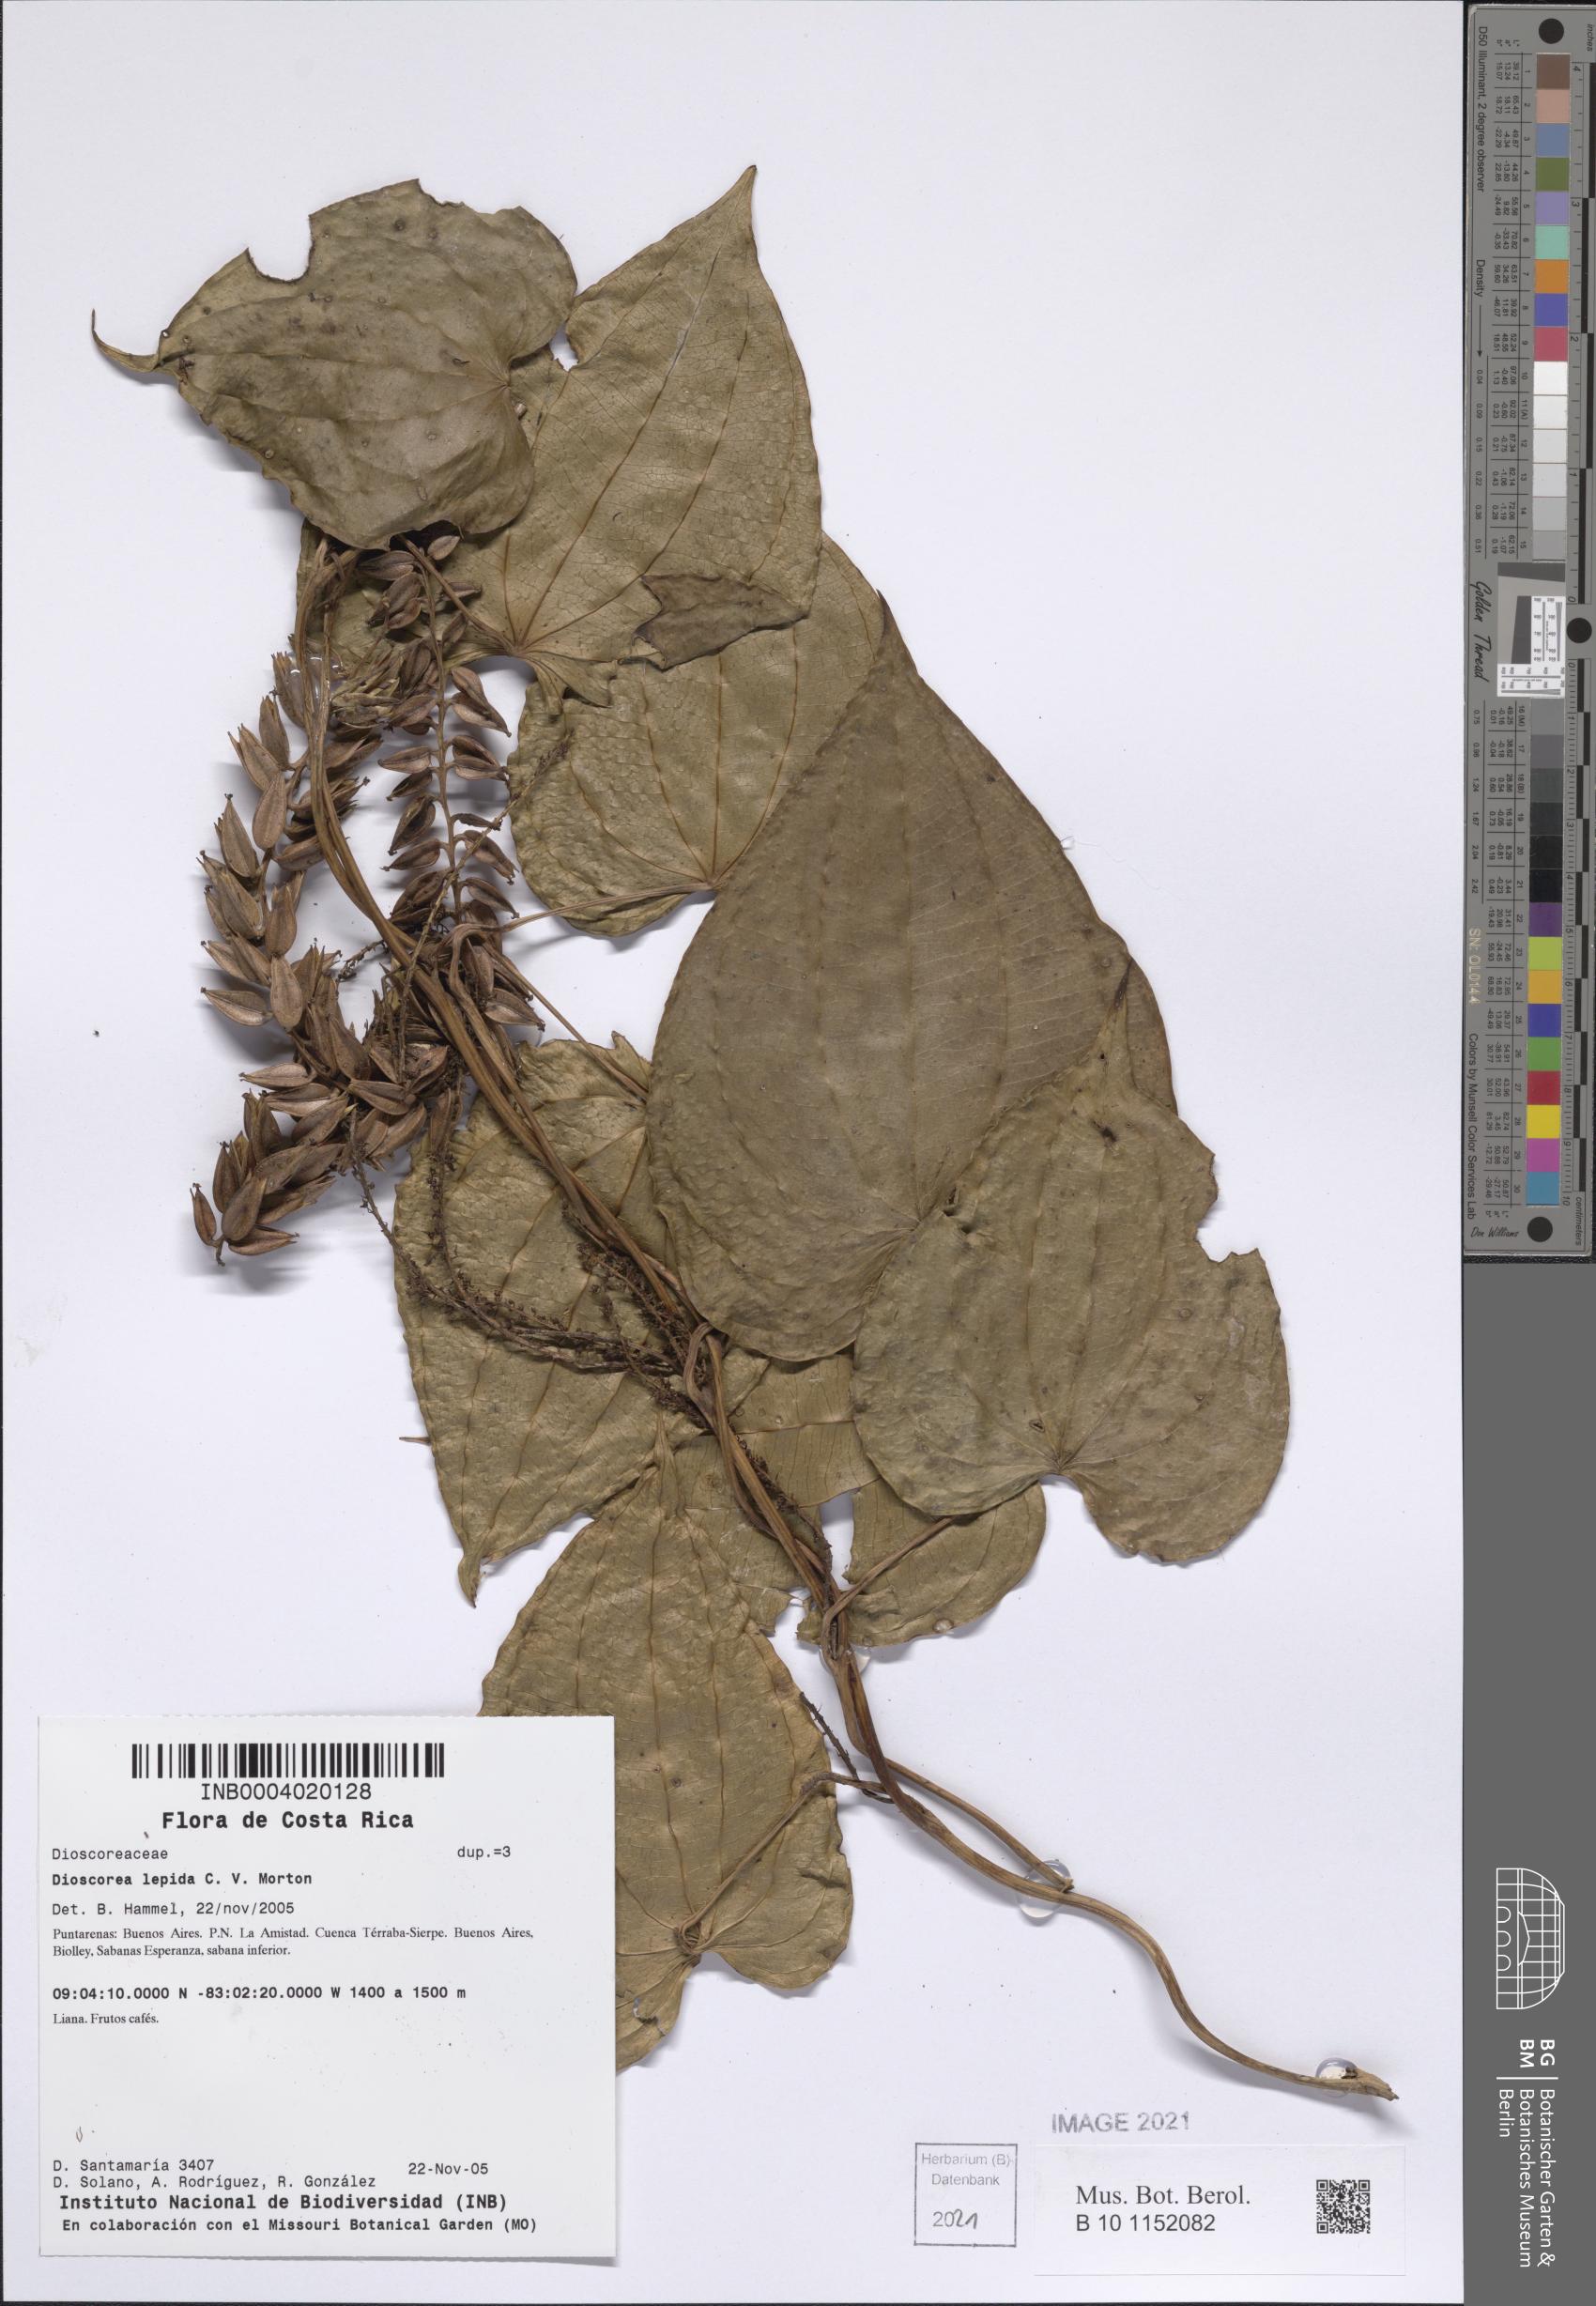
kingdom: Plantae
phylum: Tracheophyta
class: Liliopsida
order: Dioscoreales
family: Dioscoreaceae
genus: Dioscorea
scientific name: Dioscorea lepida
